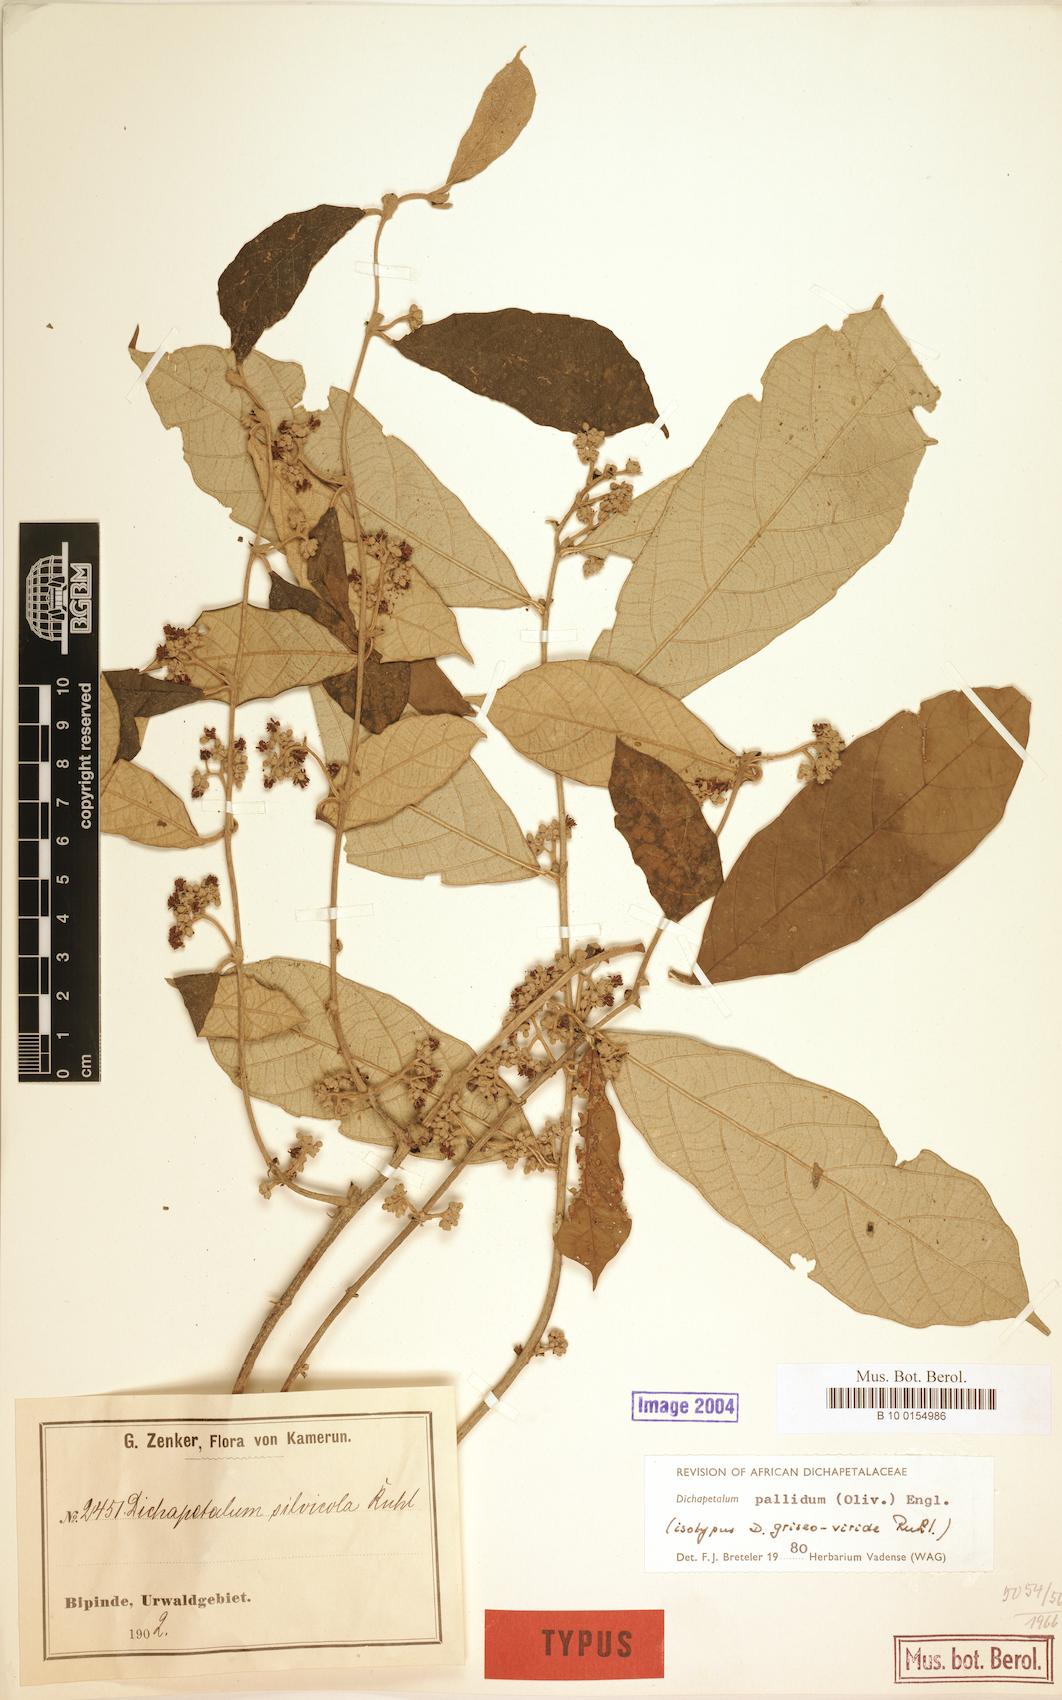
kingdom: Plantae
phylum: Tracheophyta
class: Magnoliopsida
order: Malpighiales
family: Dichapetalaceae
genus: Dichapetalum
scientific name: Dichapetalum pallidum
